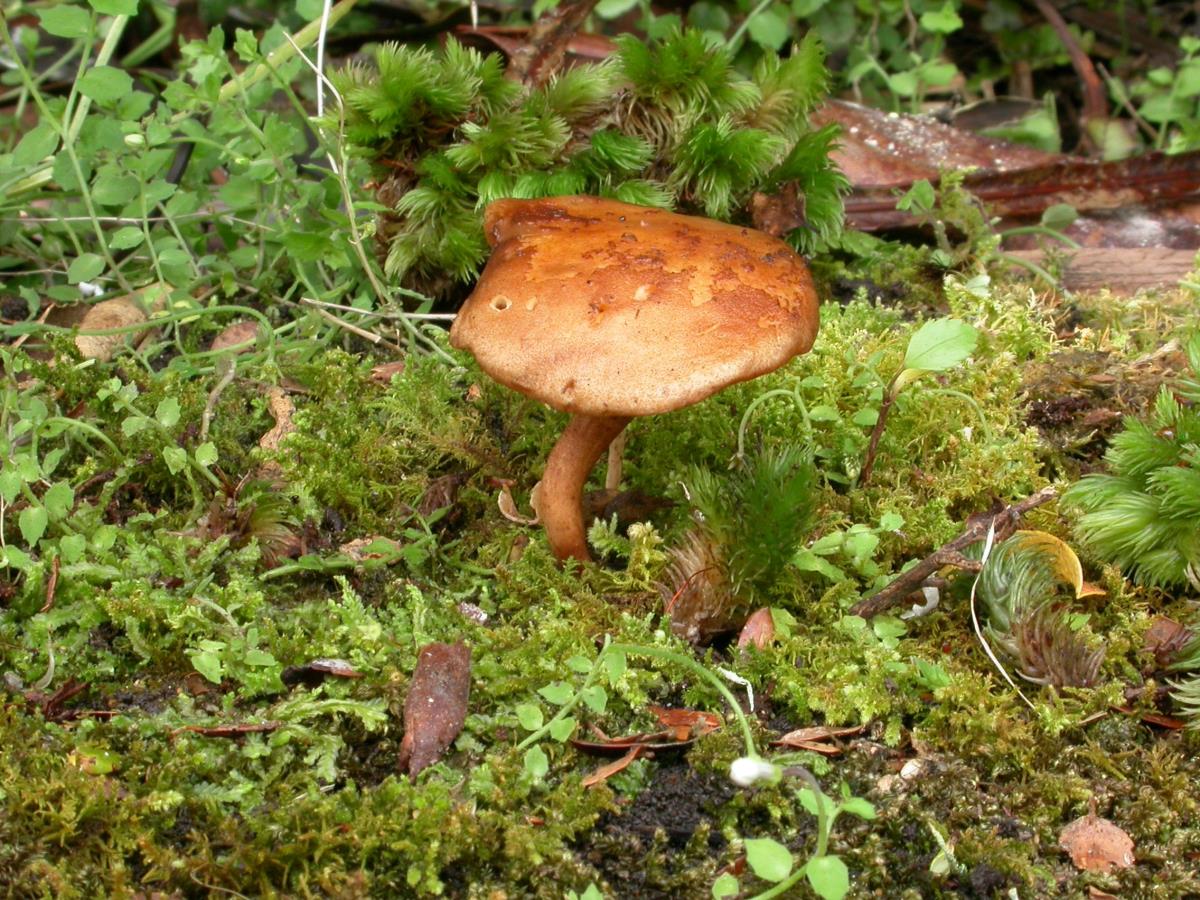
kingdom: Fungi
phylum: Basidiomycota
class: Agaricomycetes
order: Boletales
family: Boletaceae
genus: Chalciporus
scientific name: Chalciporus aurantiacus
